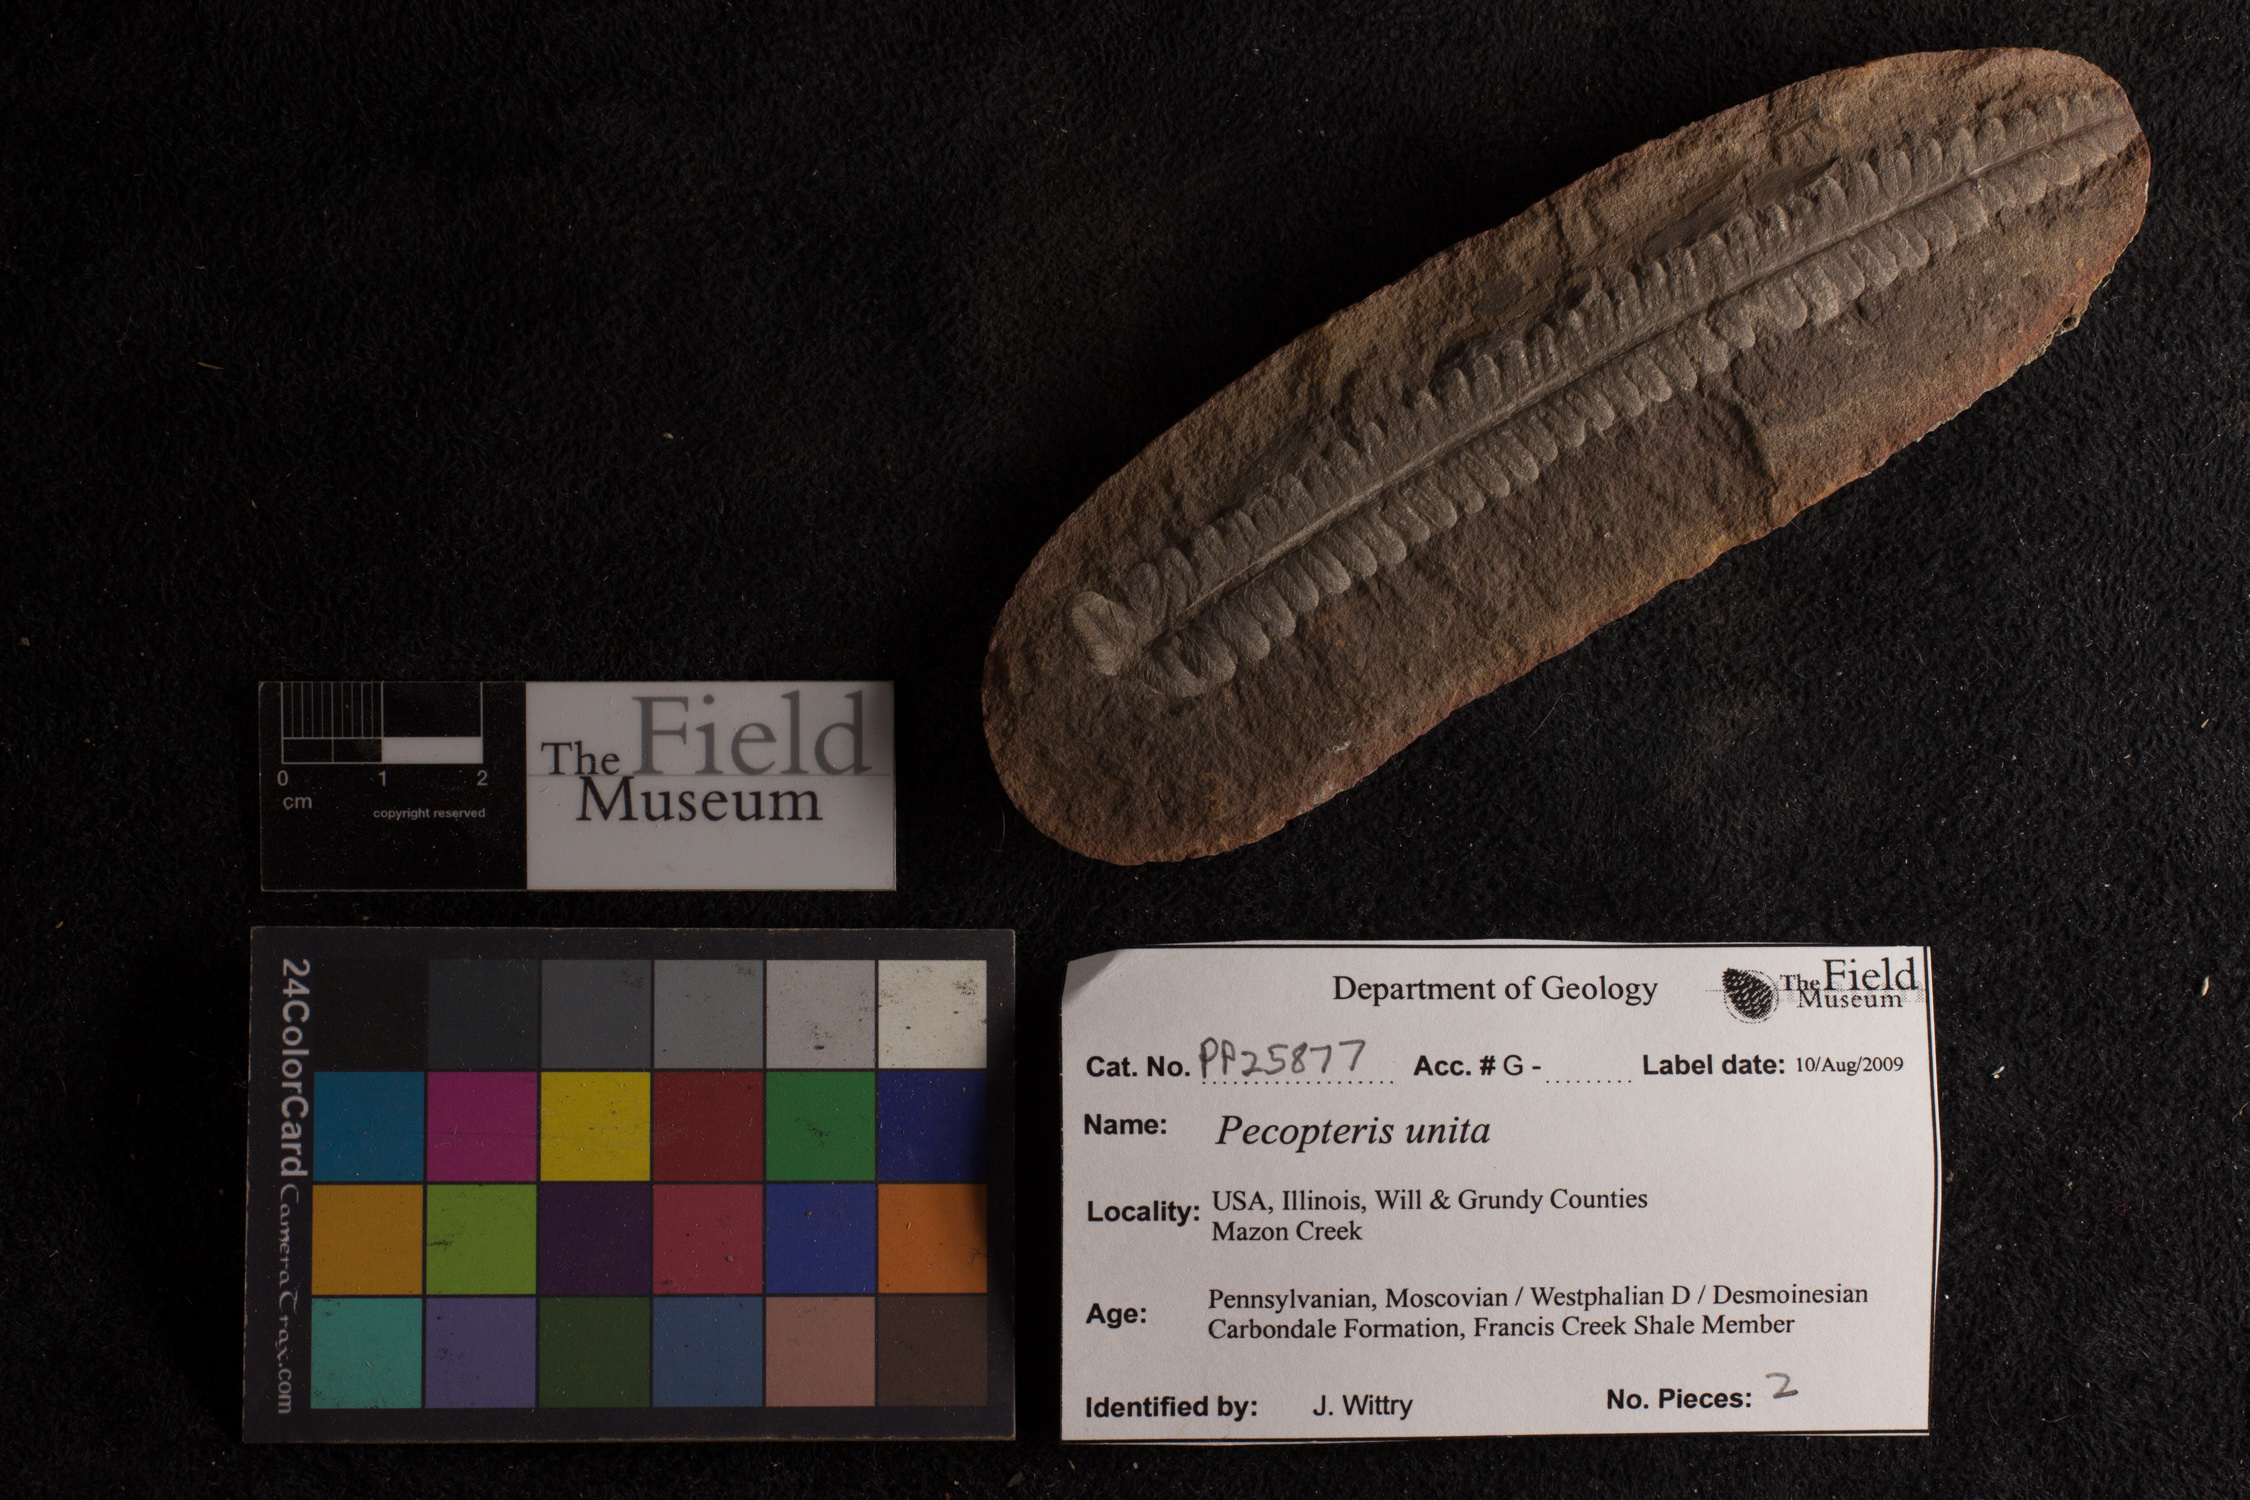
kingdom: Plantae
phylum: Tracheophyta
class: Polypodiopsida
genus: Diplazites
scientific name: Diplazites
